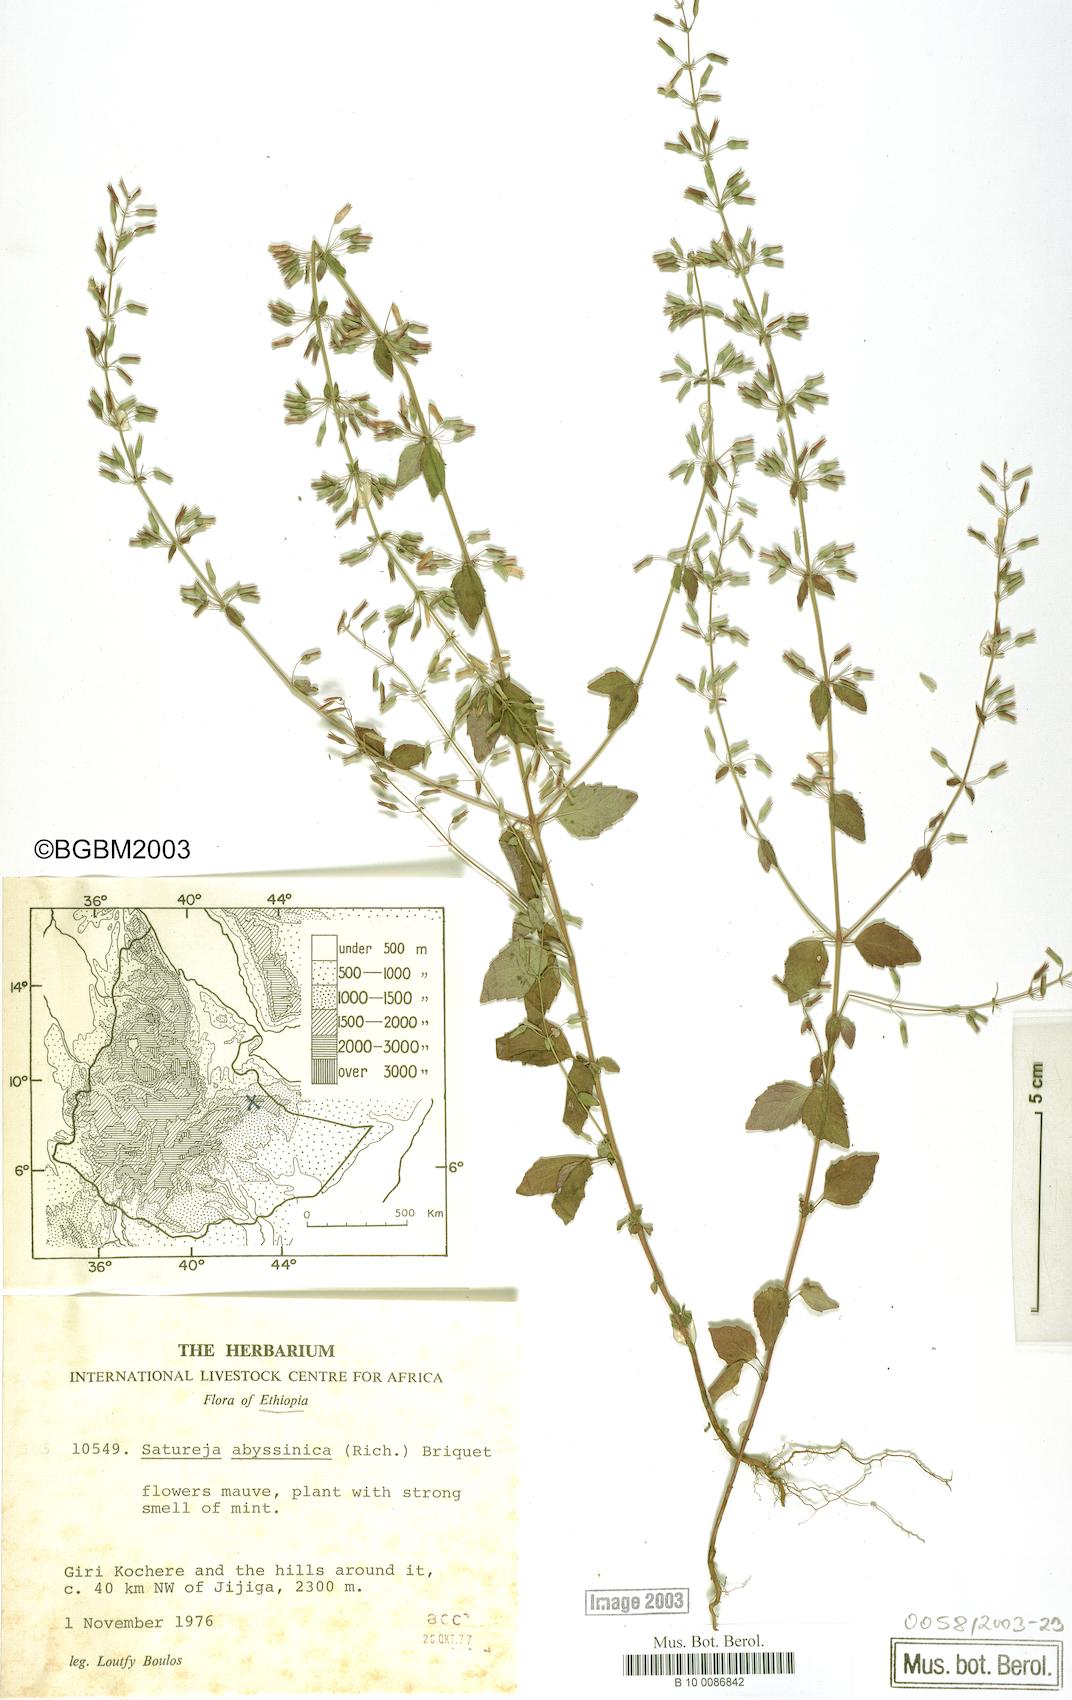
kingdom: Plantae
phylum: Tracheophyta
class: Magnoliopsida
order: Lamiales
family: Lamiaceae
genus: Clinopodium
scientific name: Clinopodium abyssinicum
